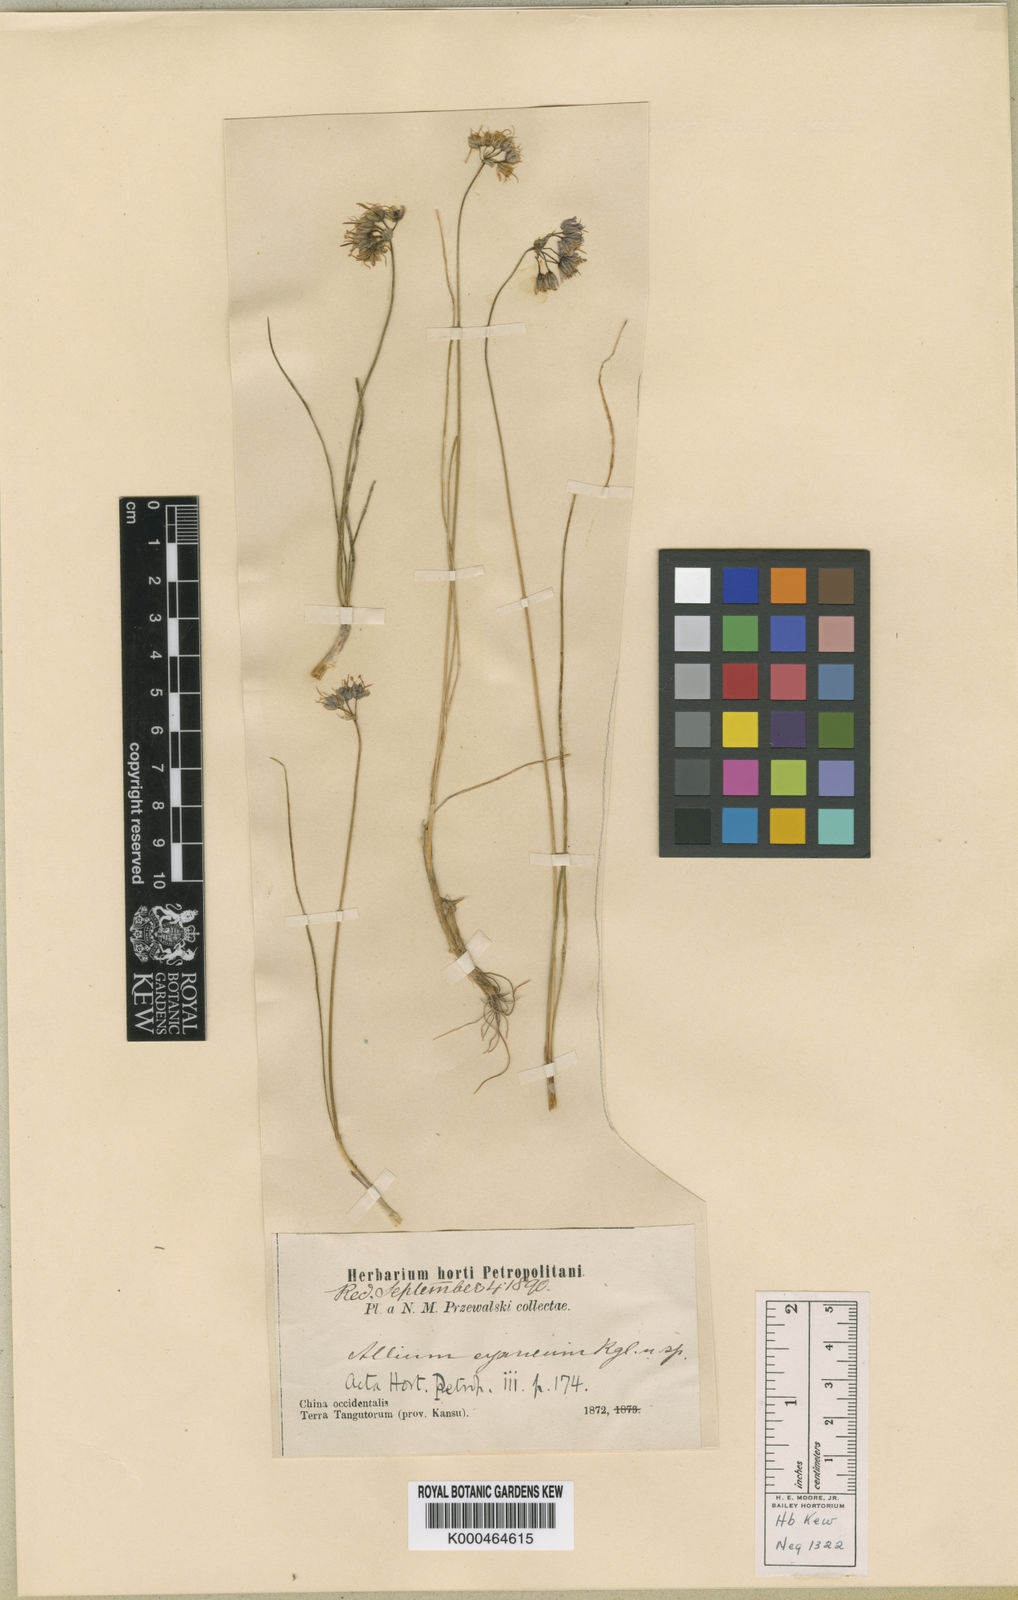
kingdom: Plantae
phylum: Tracheophyta
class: Liliopsida
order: Asparagales
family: Amaryllidaceae
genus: Allium
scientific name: Allium cyaneum
